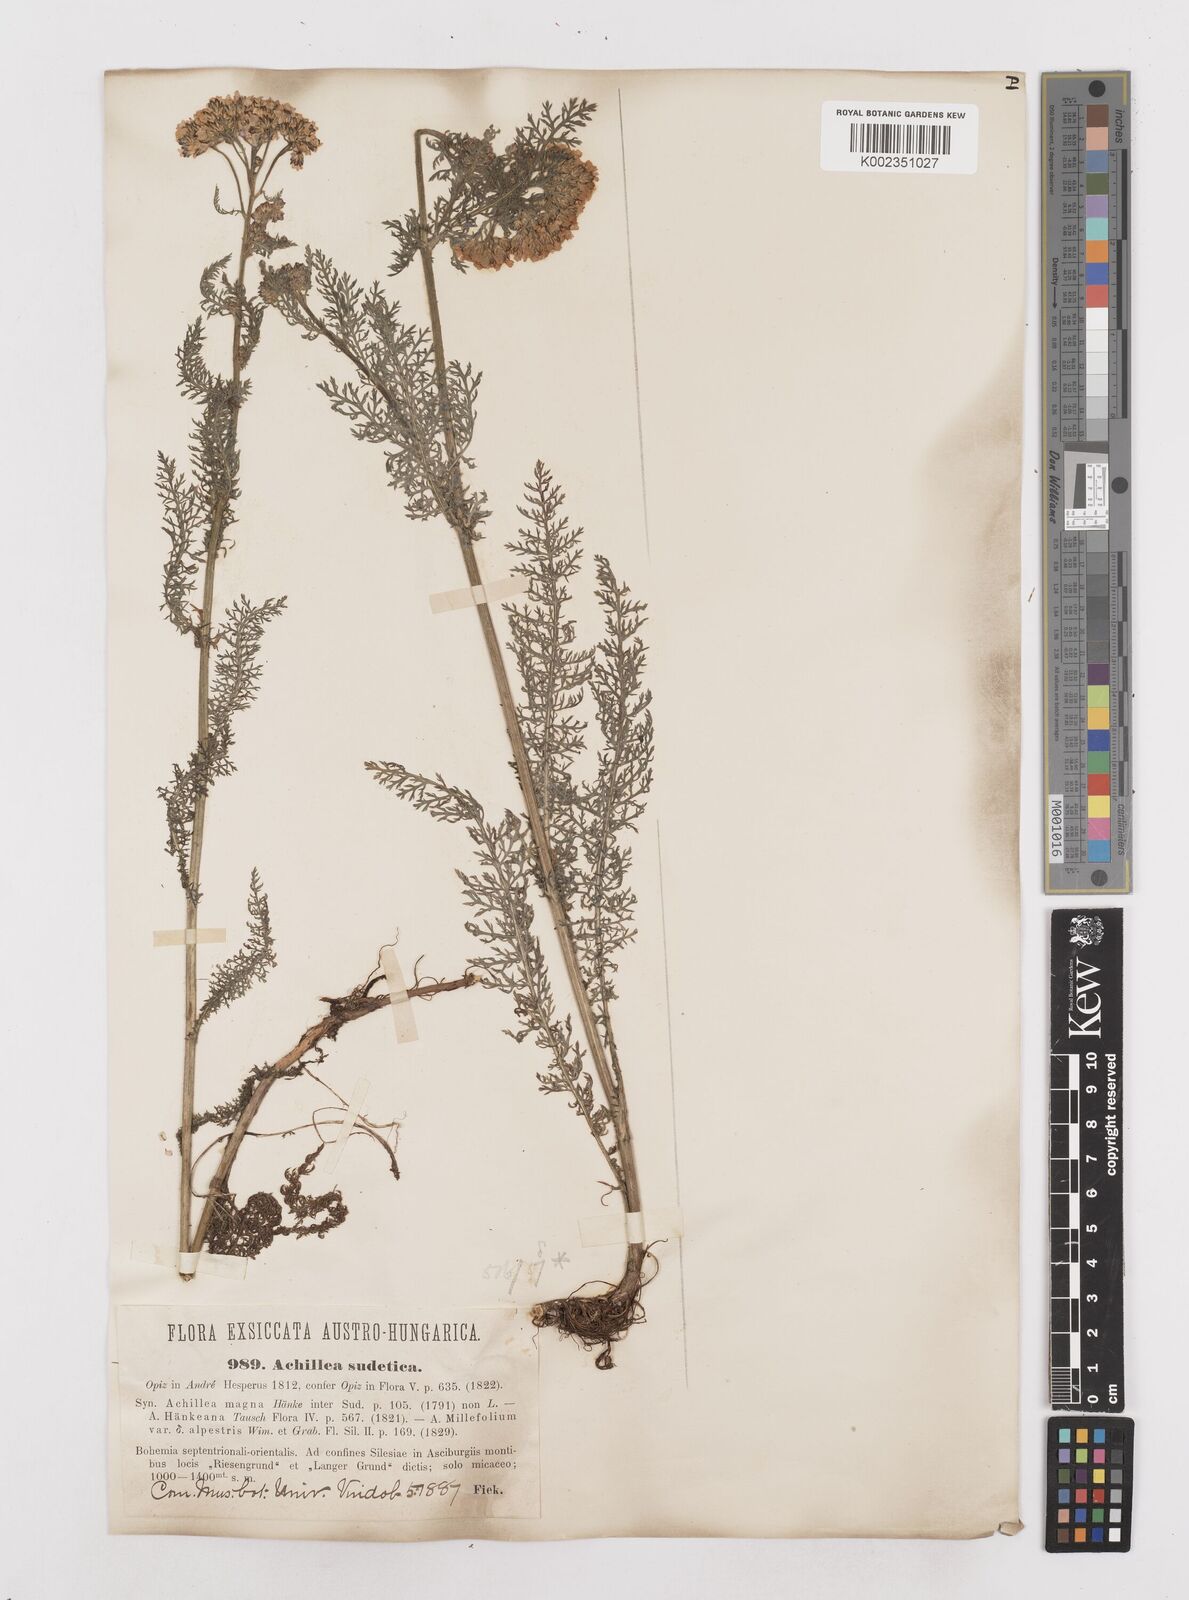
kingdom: Plantae
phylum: Tracheophyta
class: Magnoliopsida
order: Asterales
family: Asteraceae
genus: Achillea
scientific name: Achillea millefolium
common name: Yarrow
